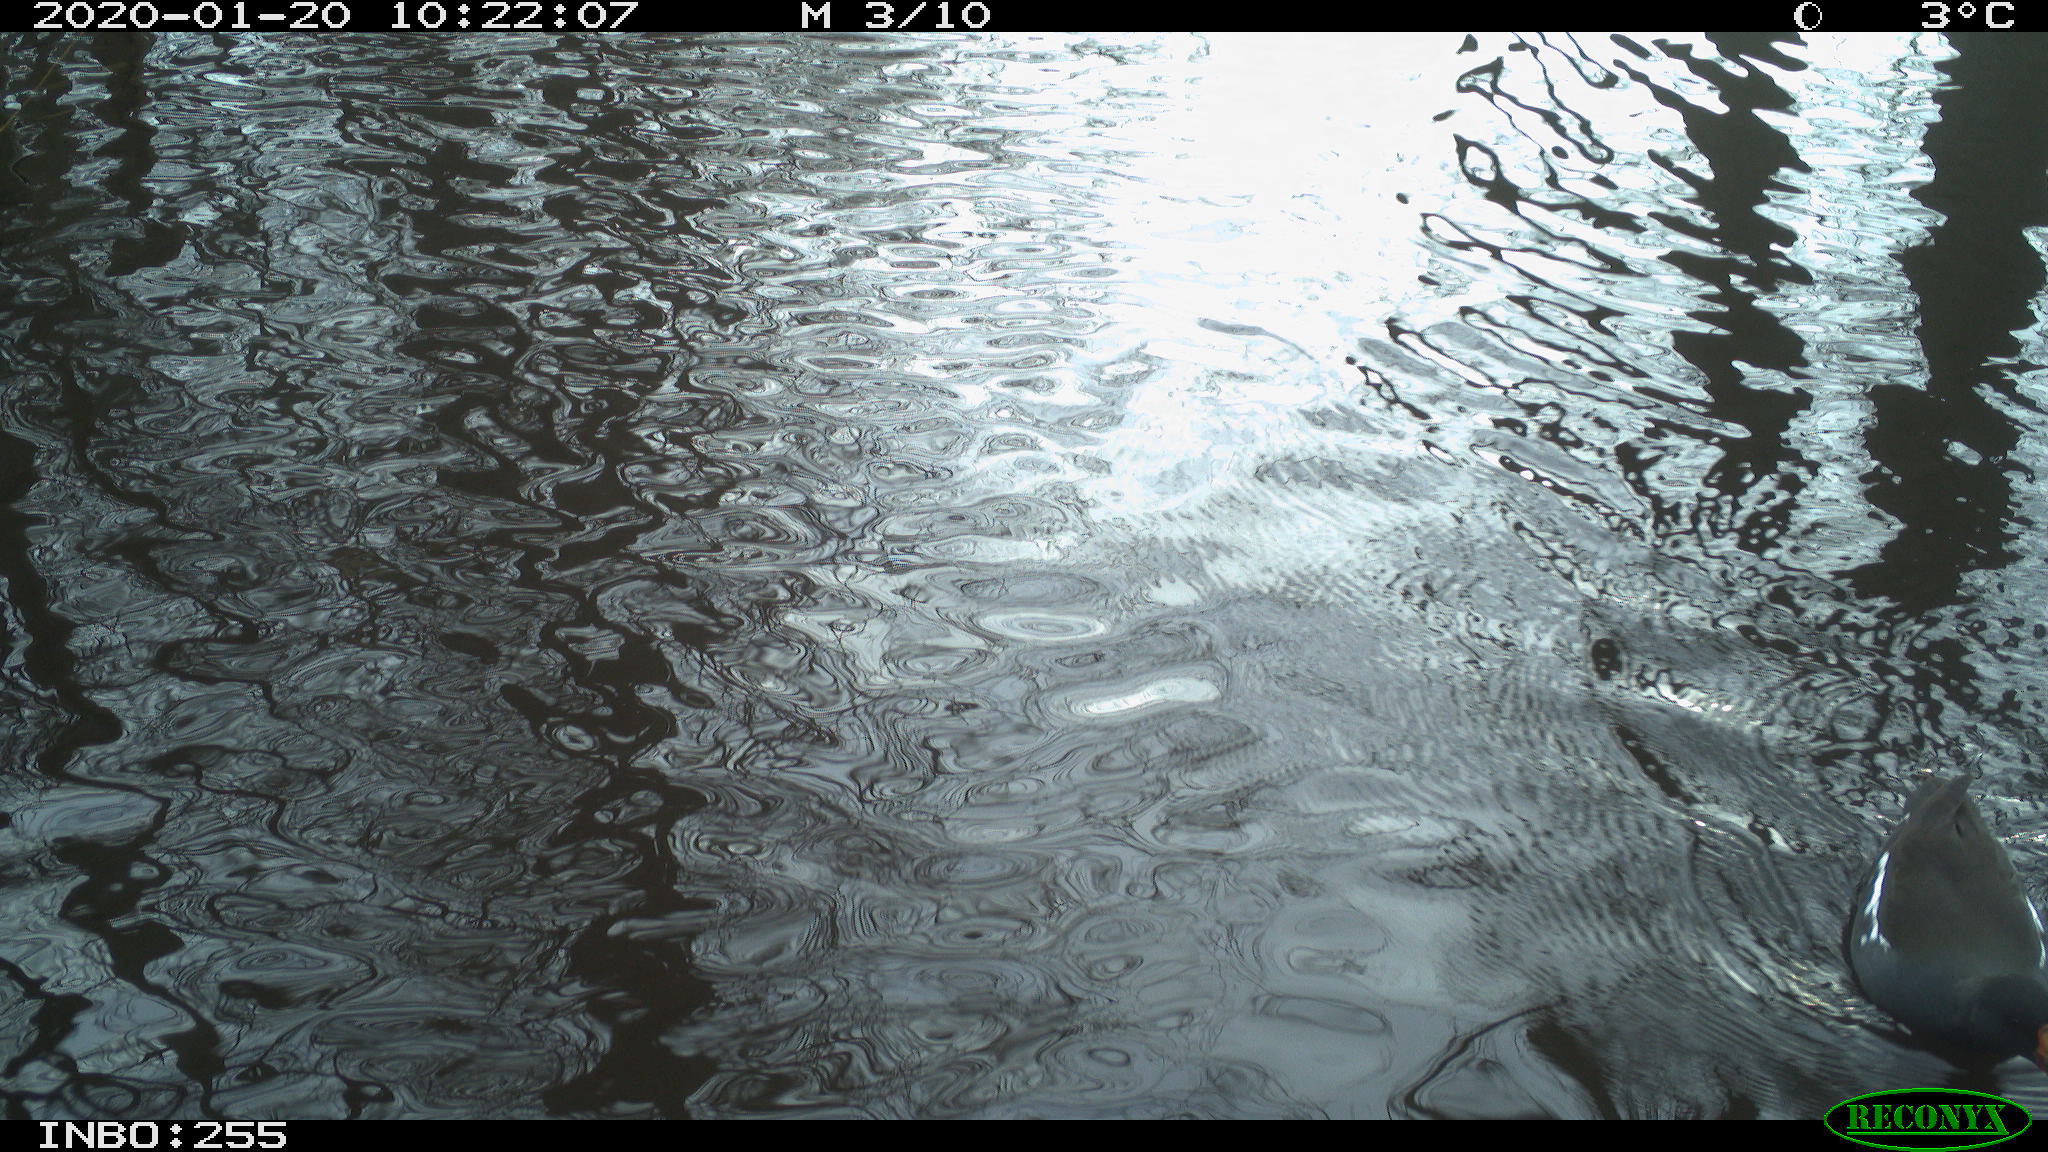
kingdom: Animalia
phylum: Chordata
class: Aves
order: Gruiformes
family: Rallidae
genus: Gallinula
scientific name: Gallinula chloropus
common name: Common moorhen
